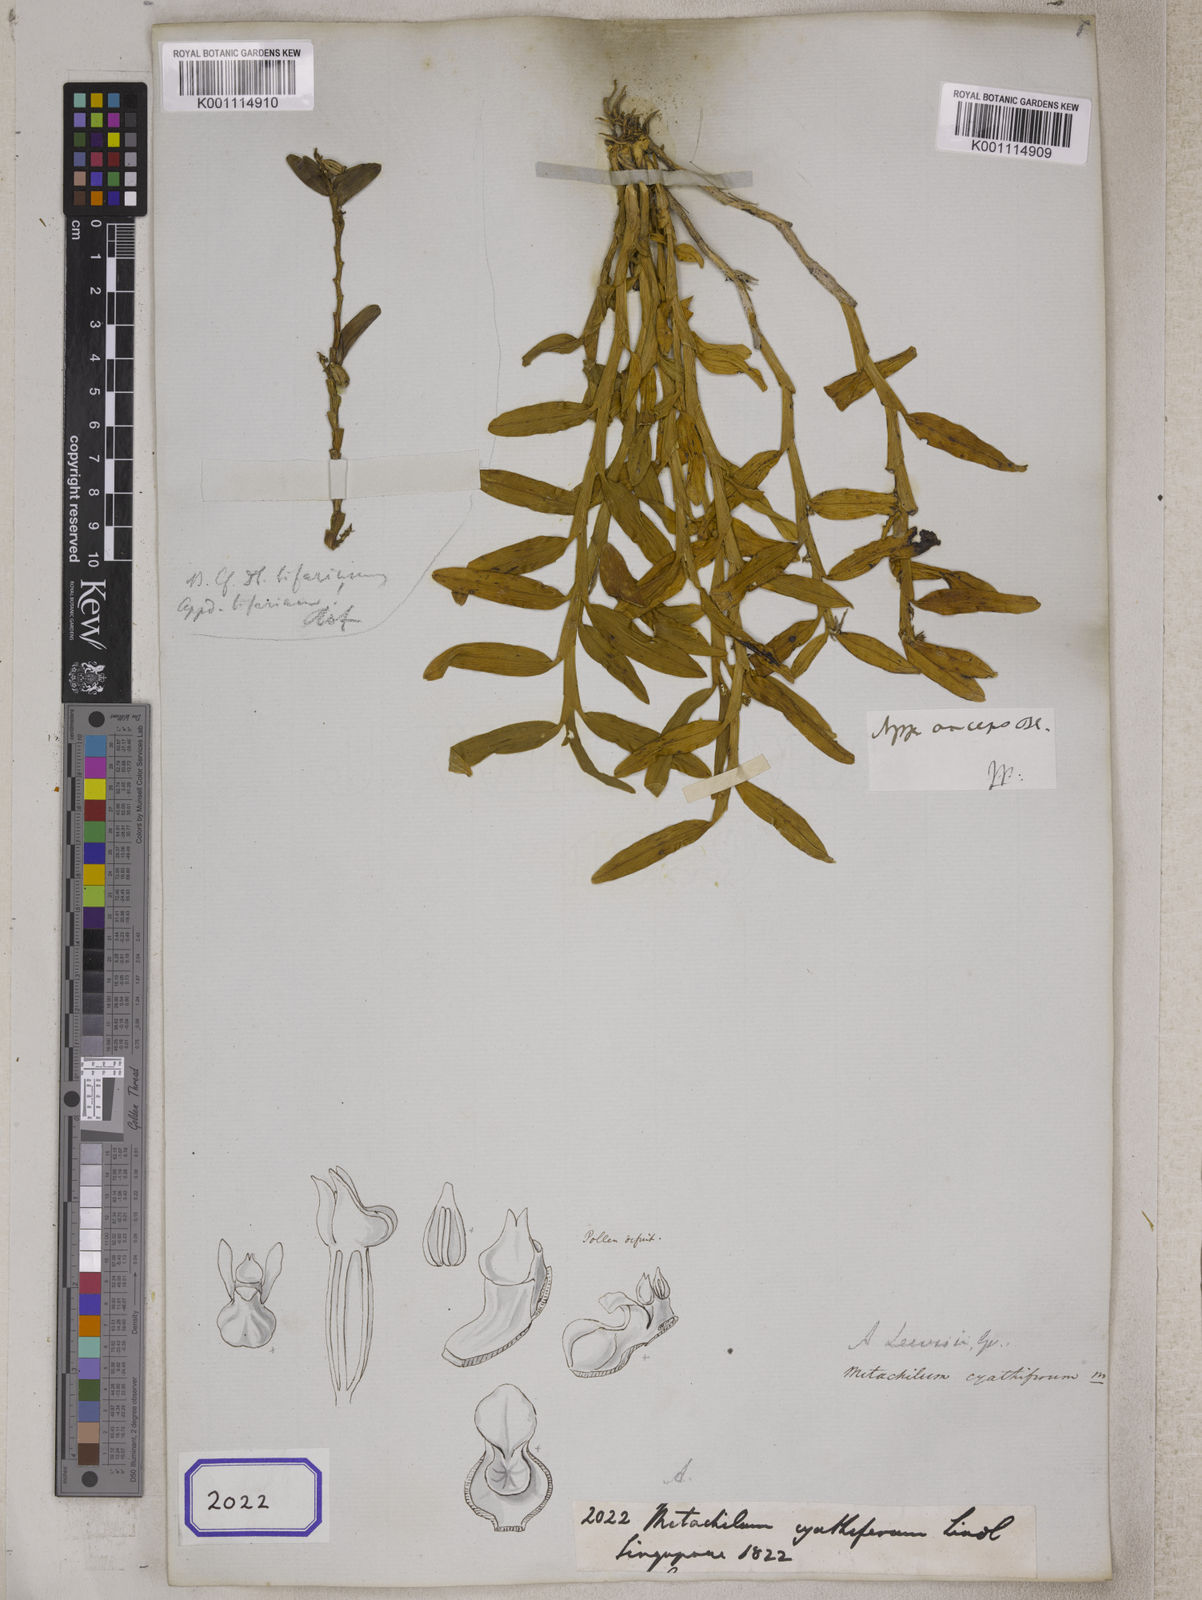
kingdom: Plantae
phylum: Tracheophyta
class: Liliopsida
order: Asparagales
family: Orchidaceae
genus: Appendicula
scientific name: Appendicula
